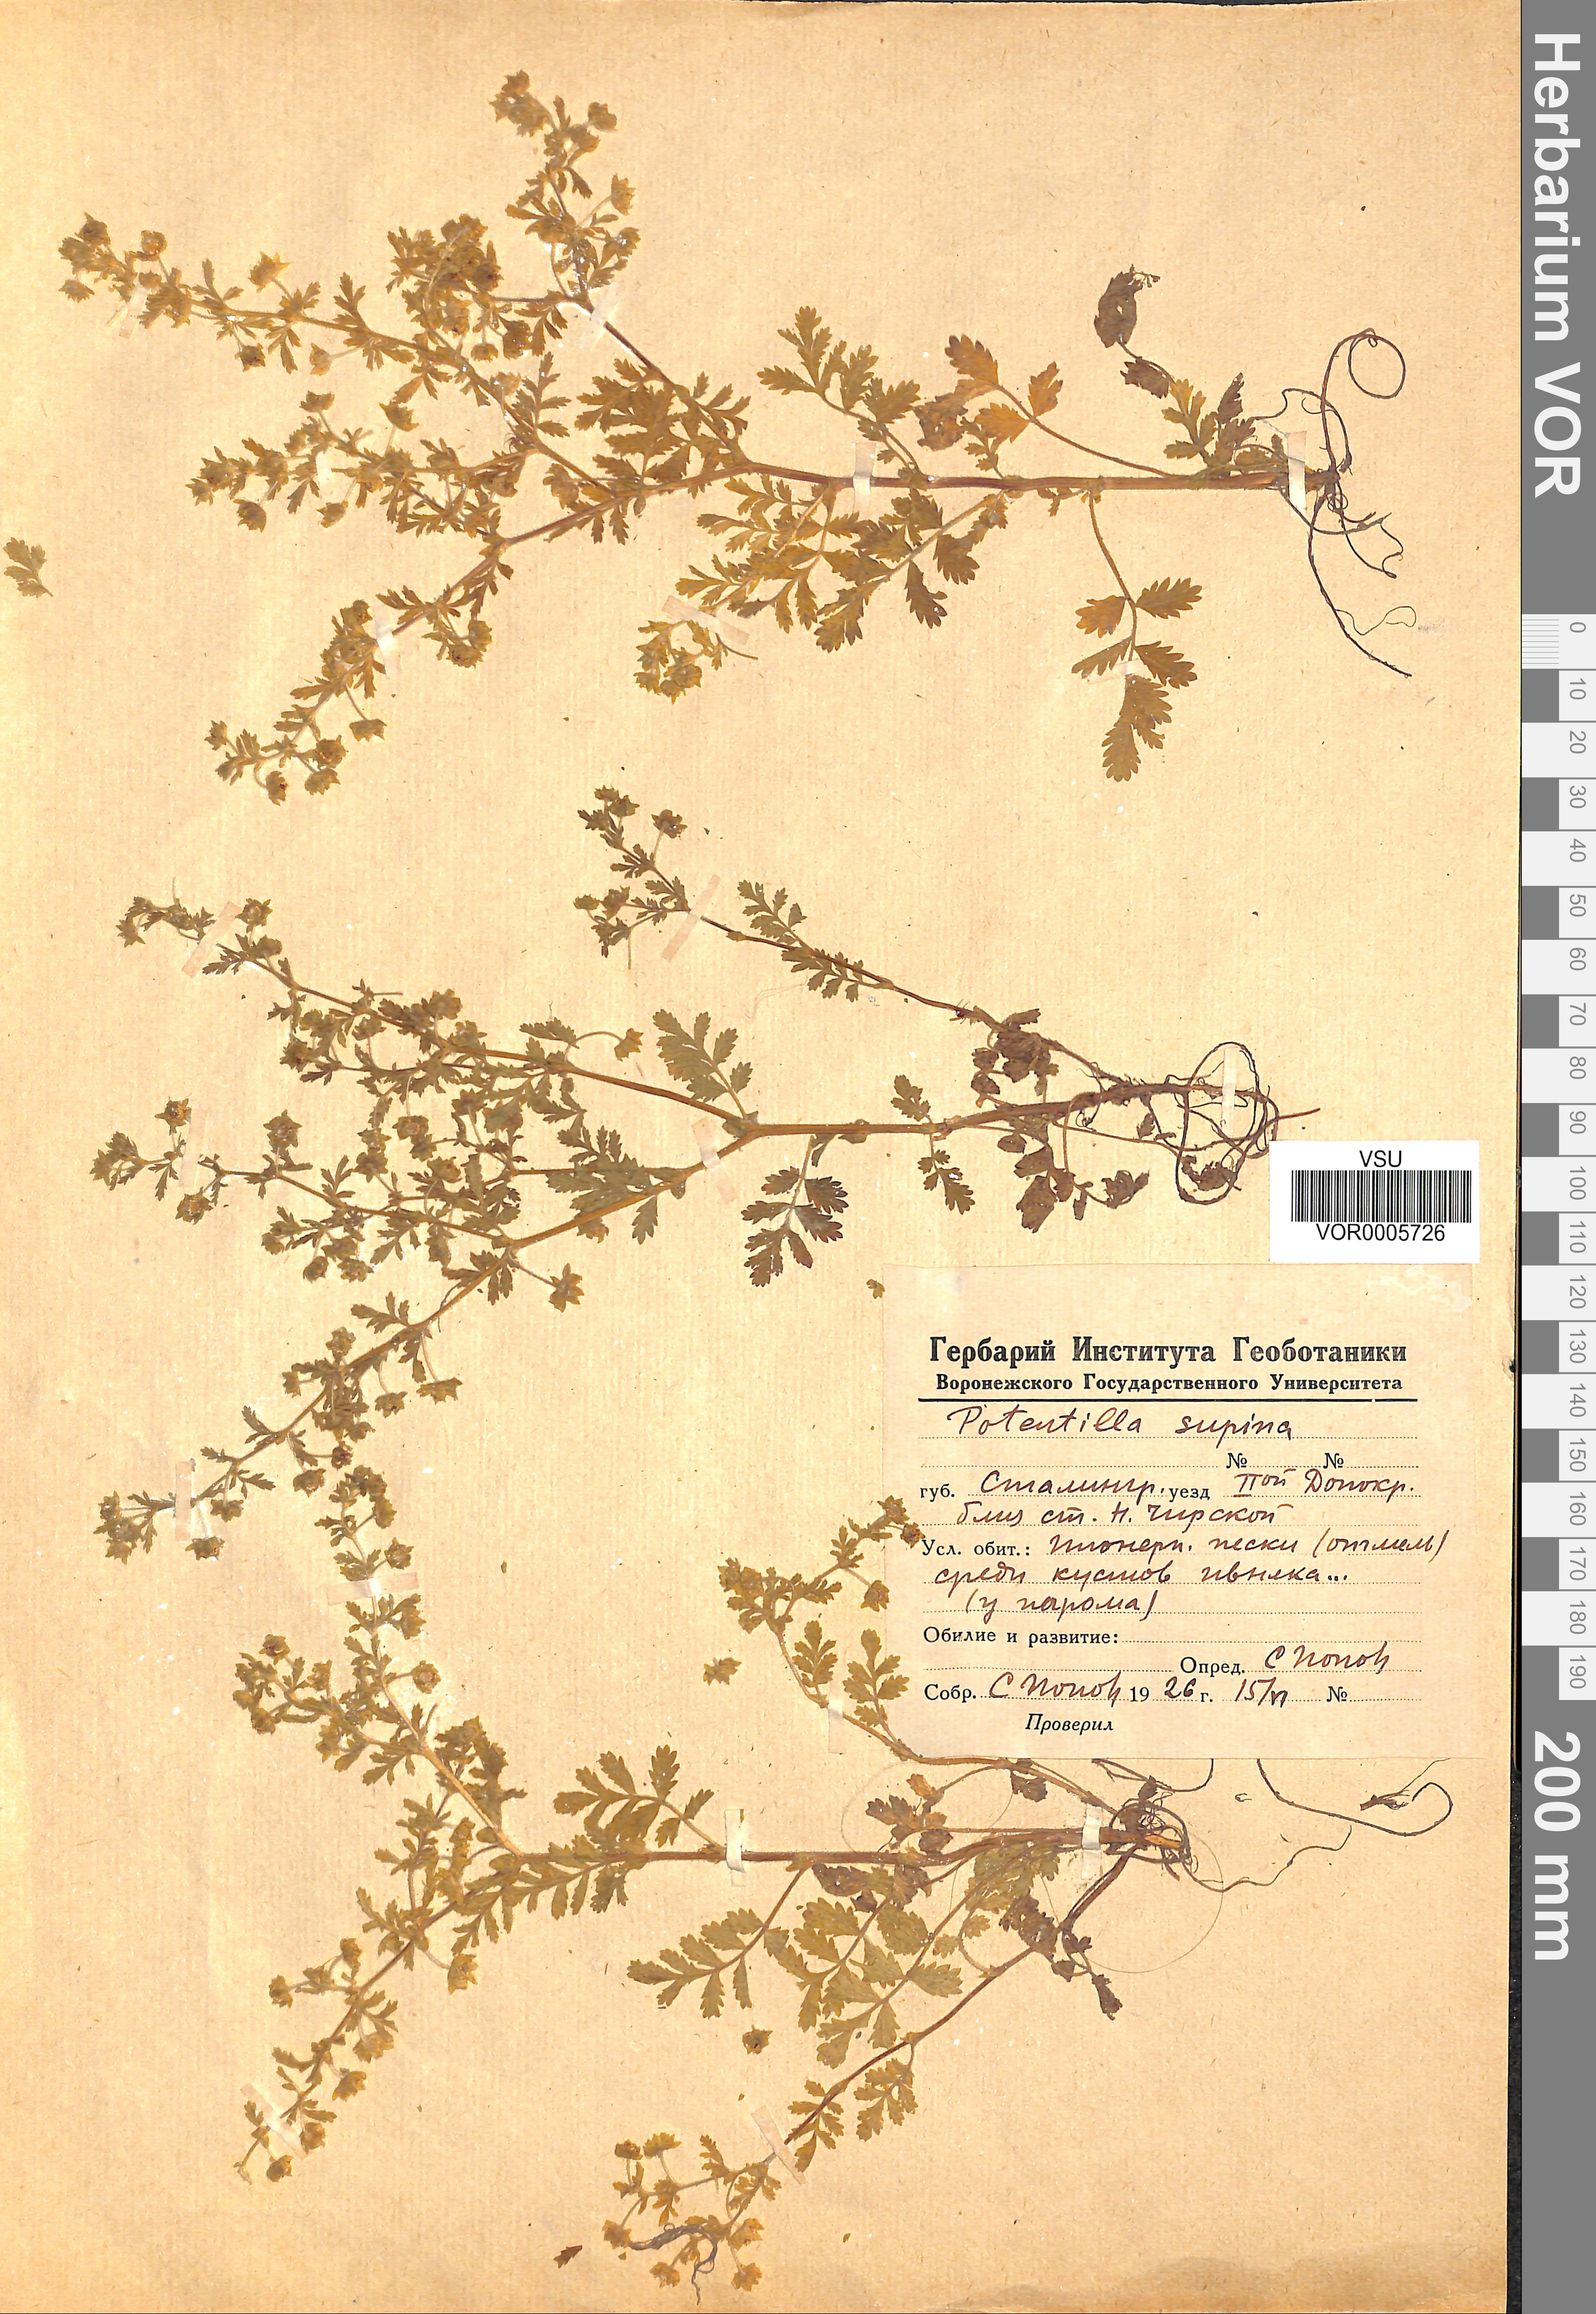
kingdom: Plantae
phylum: Tracheophyta
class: Magnoliopsida
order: Rosales
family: Rosaceae
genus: Potentilla
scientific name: Potentilla supina
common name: Prostrate cinquefoil
